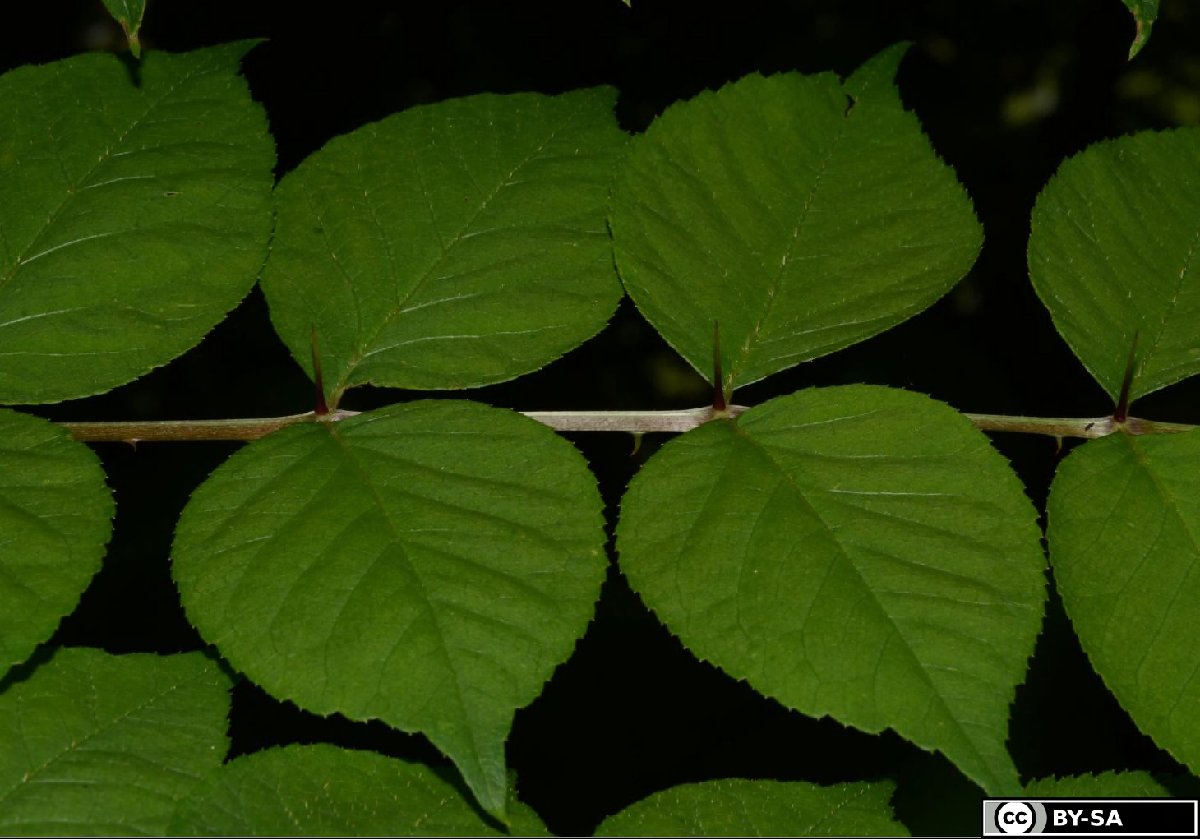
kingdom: Plantae
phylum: Tracheophyta
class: Magnoliopsida
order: Apiales
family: Araliaceae
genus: Aralia
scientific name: Aralia elata
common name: Japanese angelica-tree
